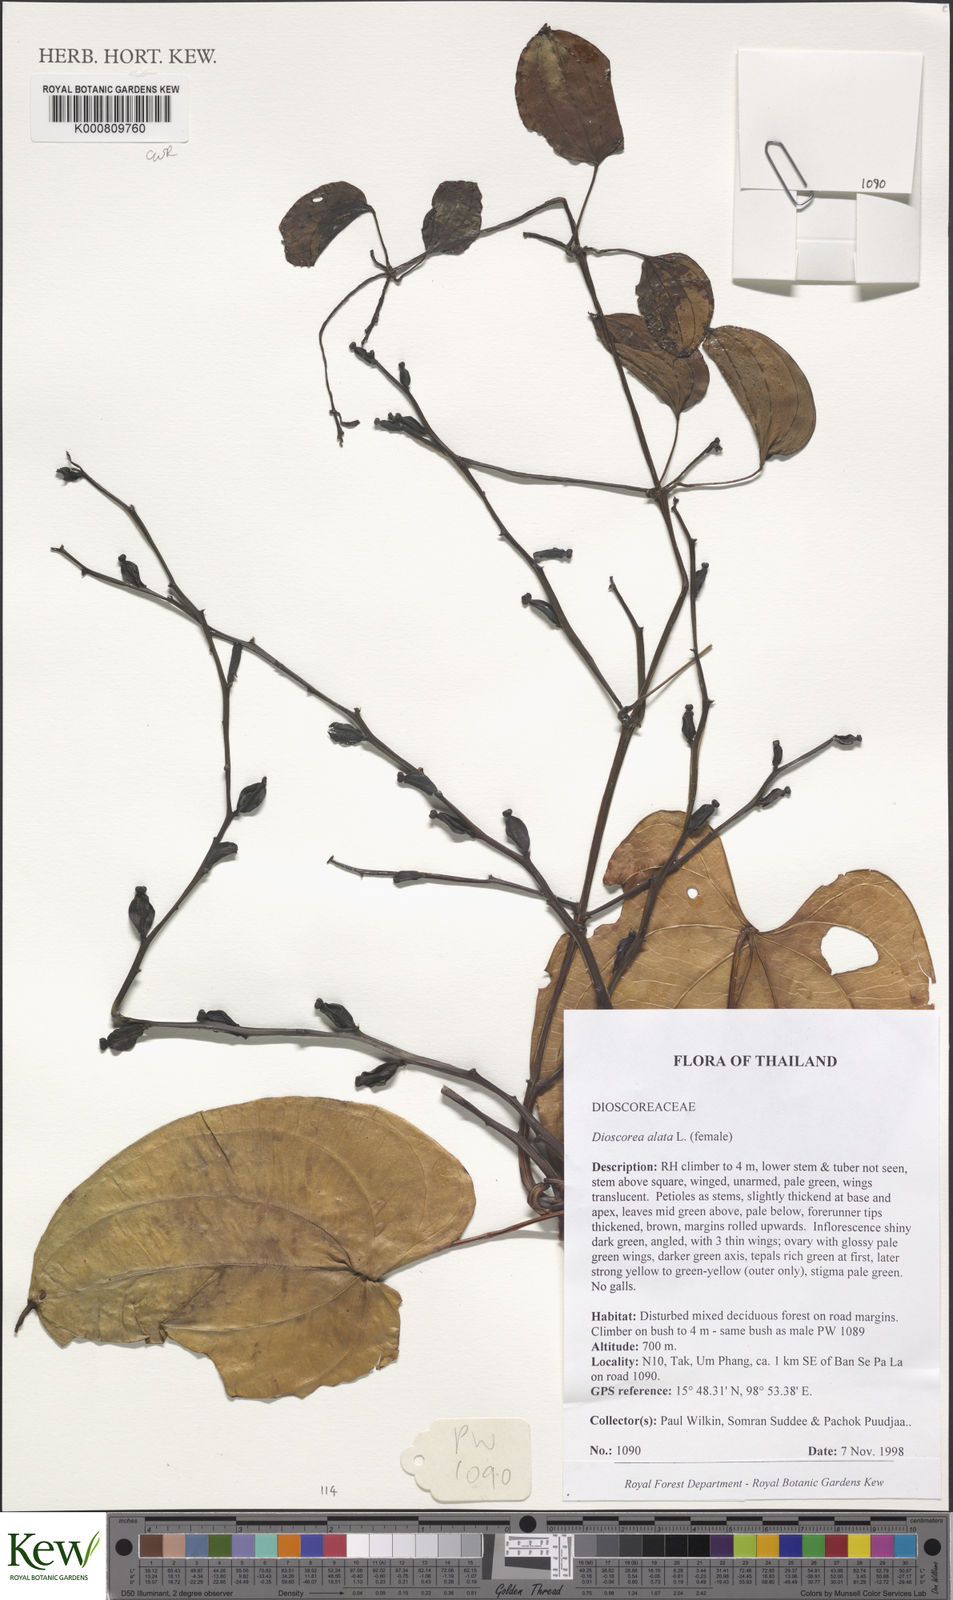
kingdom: Plantae
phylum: Tracheophyta
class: Liliopsida
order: Dioscoreales
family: Dioscoreaceae
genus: Dioscorea
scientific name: Dioscorea alata
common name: Water yam
